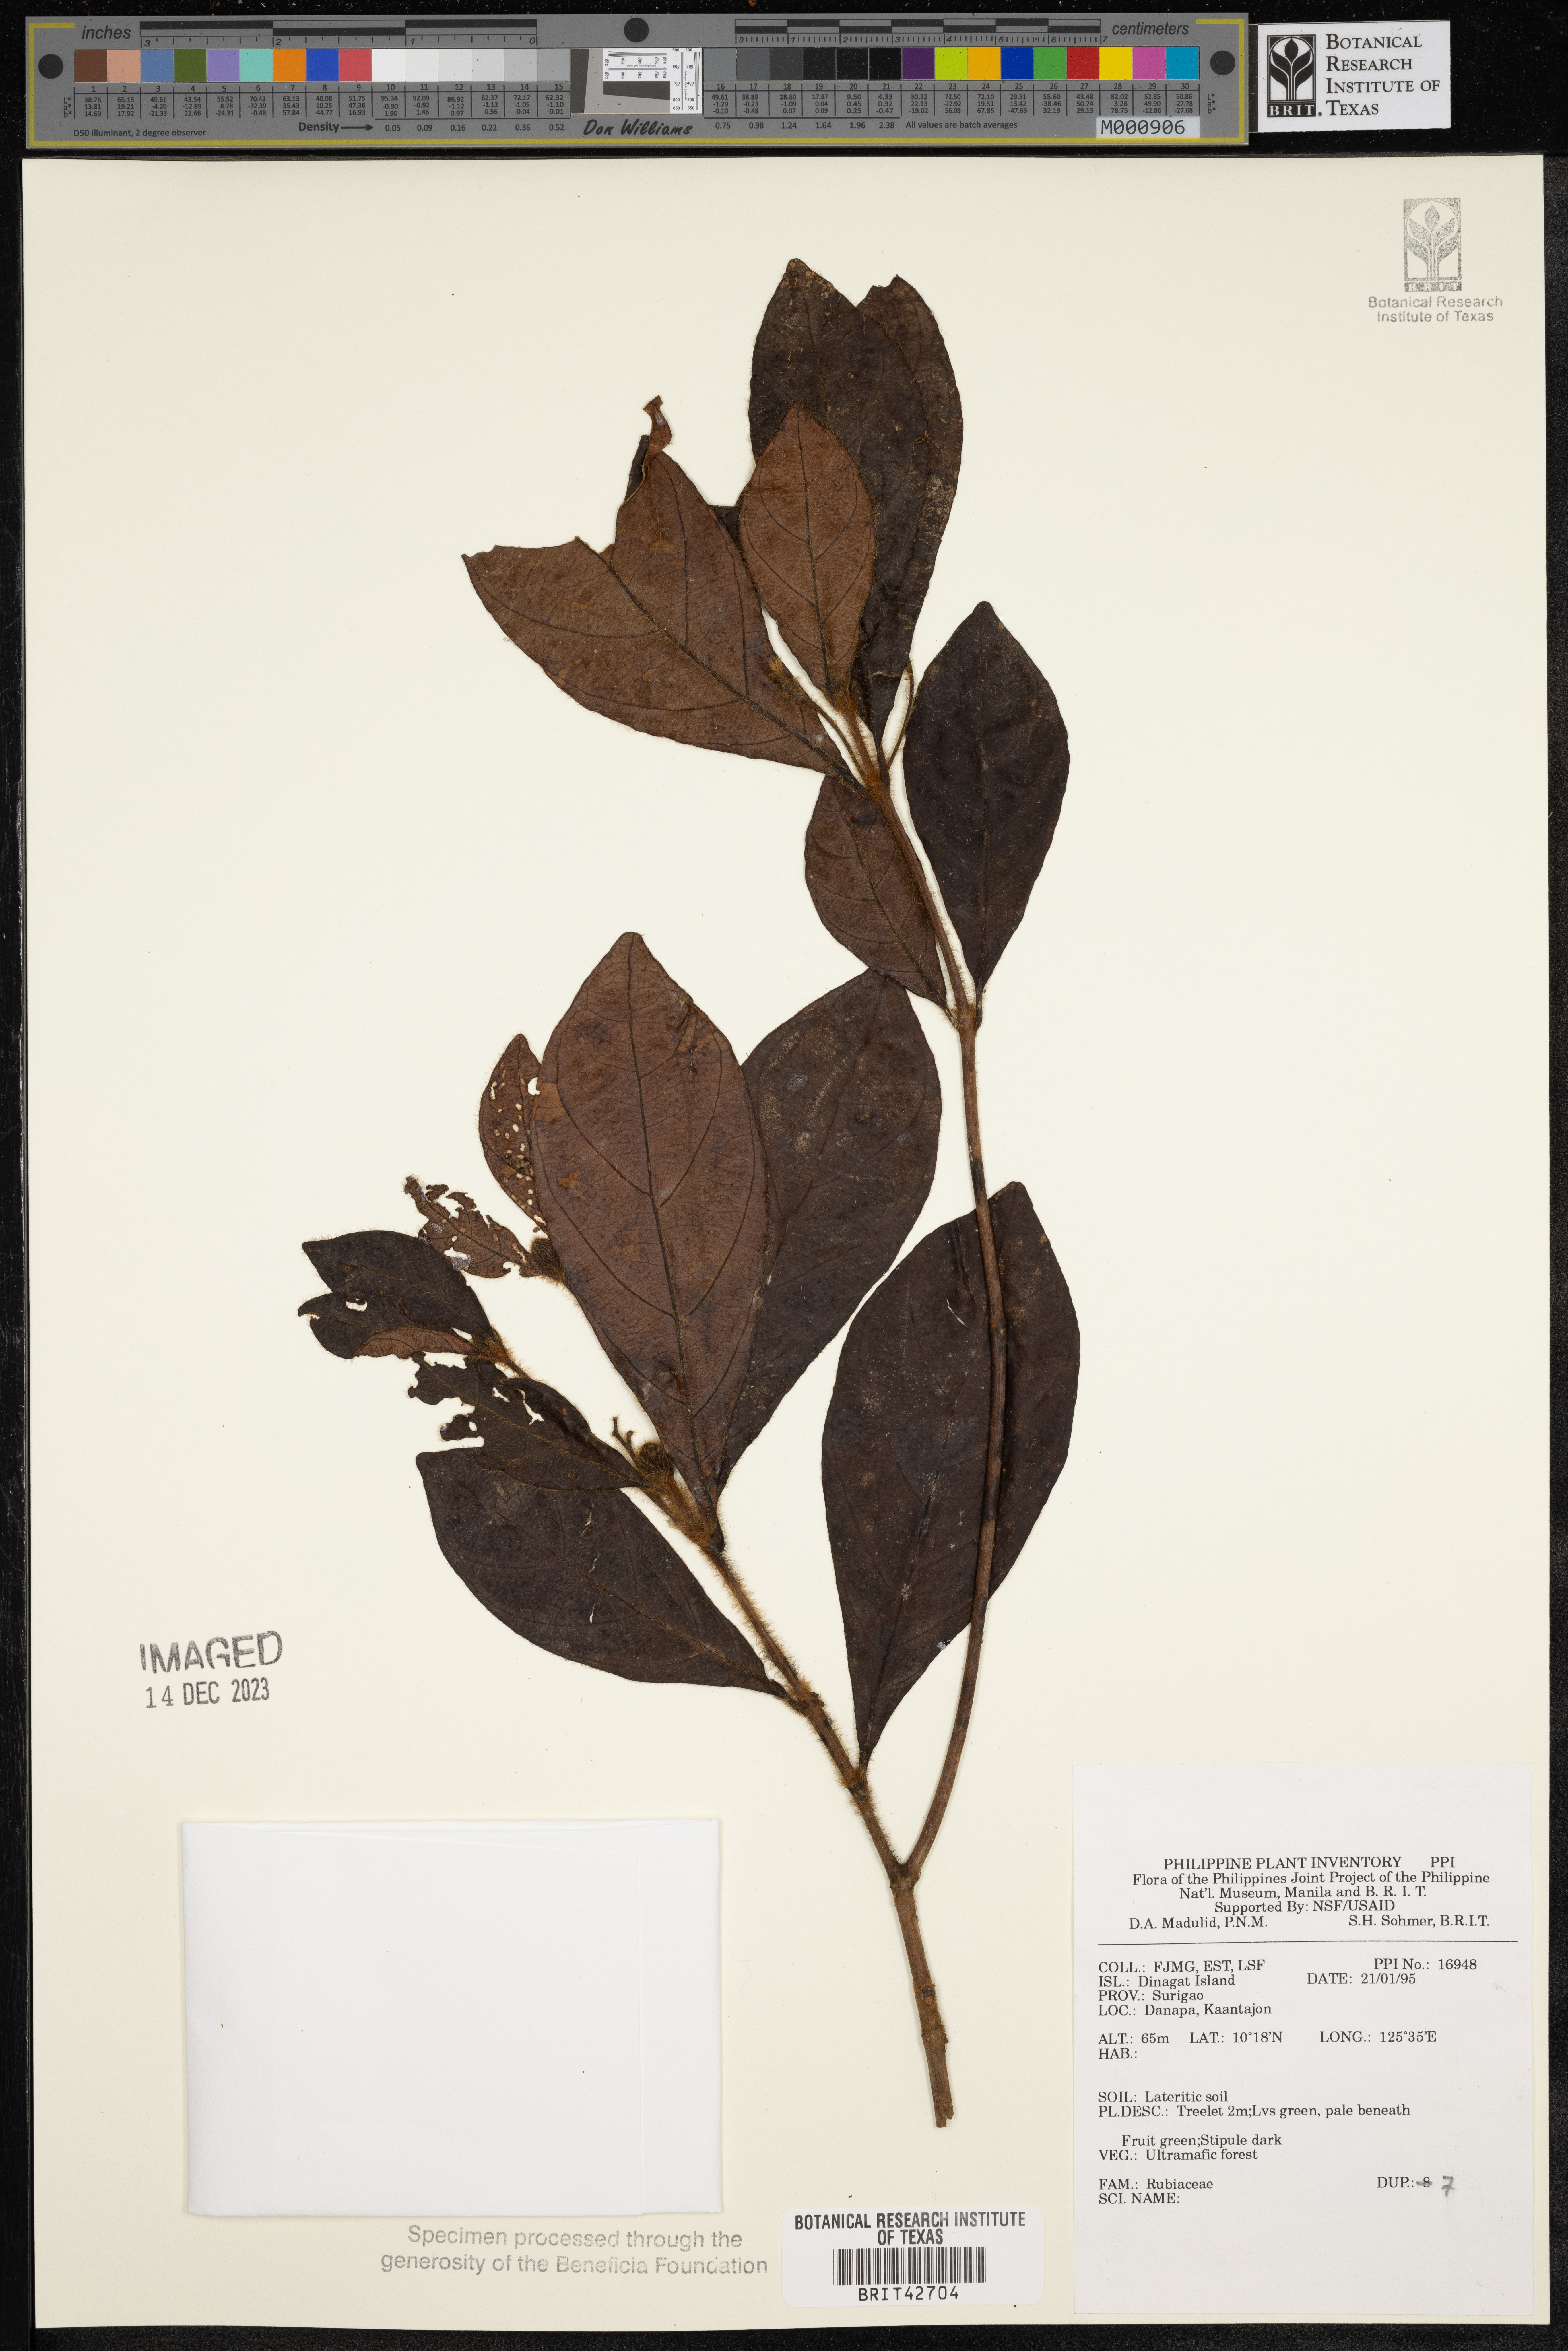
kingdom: Plantae
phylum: Tracheophyta
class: Magnoliopsida
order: Gentianales
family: Rubiaceae
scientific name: Rubiaceae
